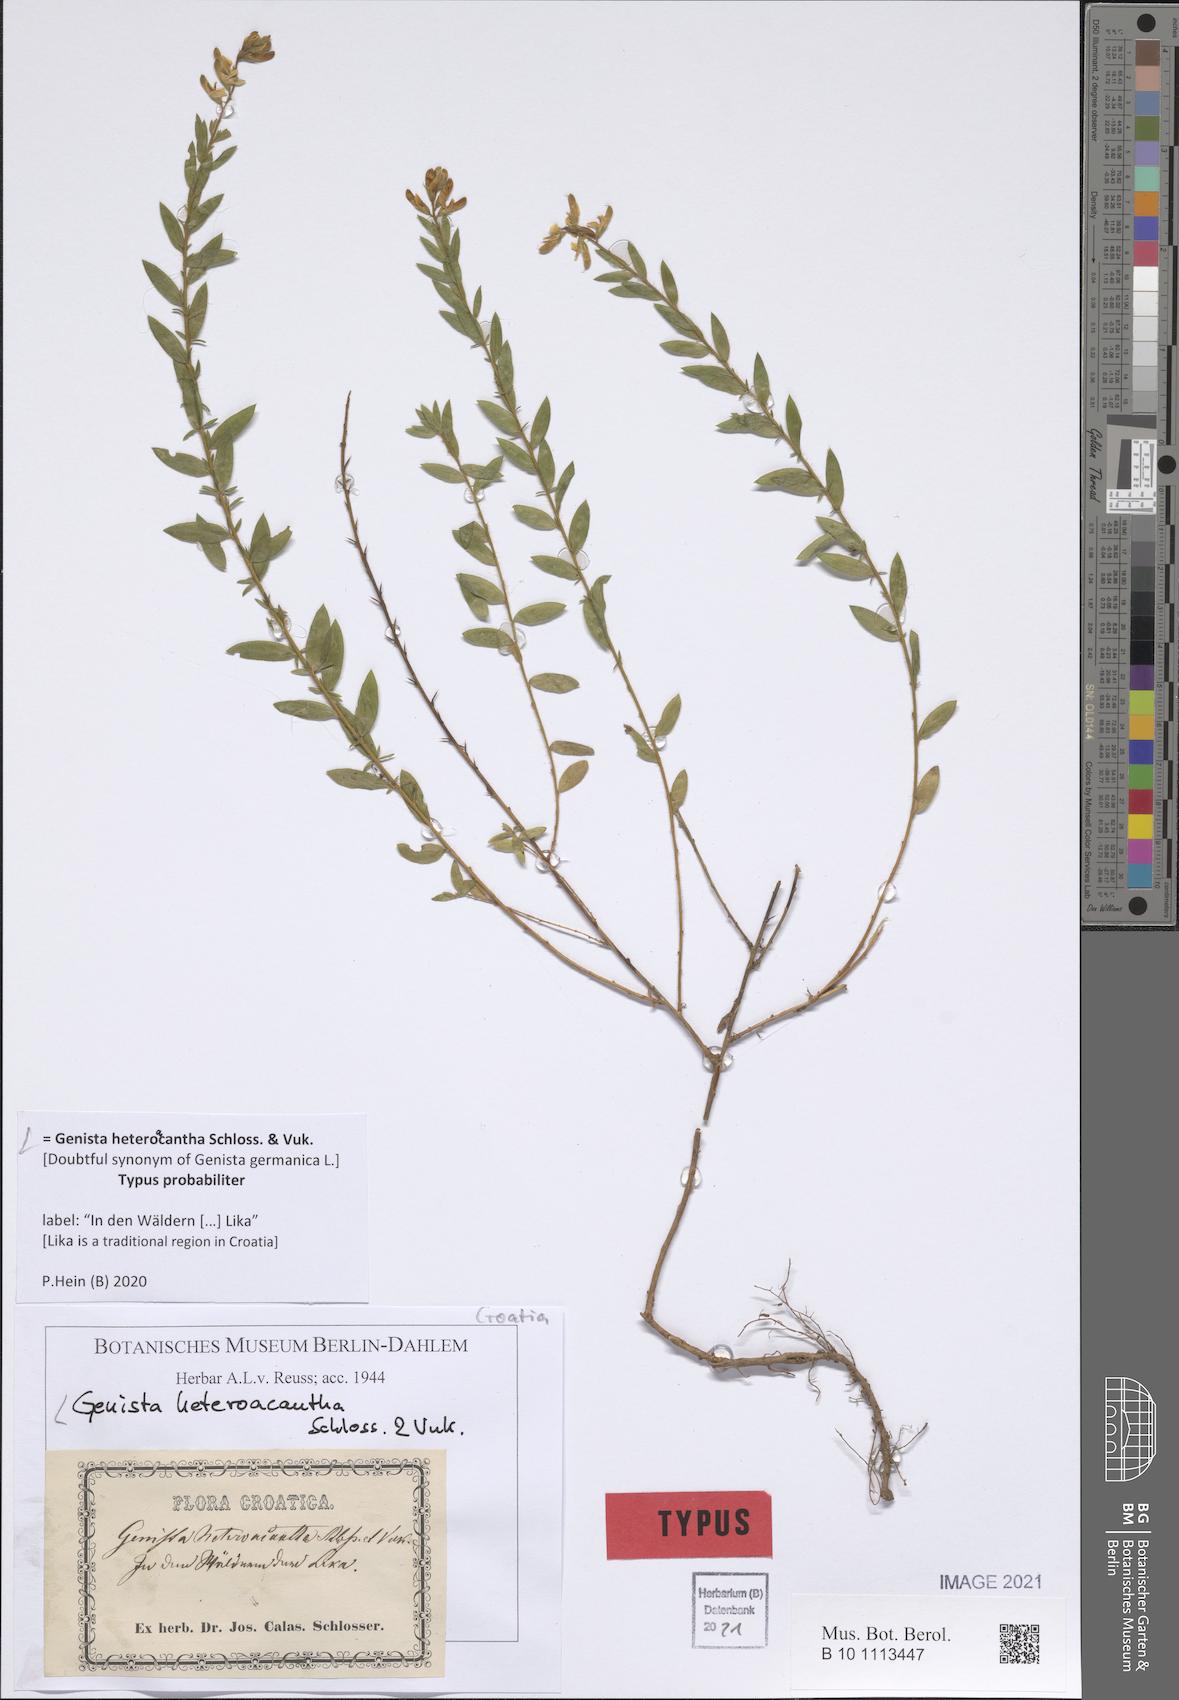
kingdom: Plantae
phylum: Tracheophyta
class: Magnoliopsida
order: Fabales
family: Fabaceae
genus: Genista
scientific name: Genista germanica
